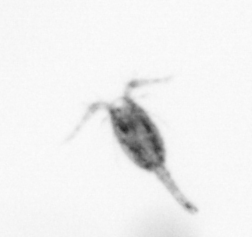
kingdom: Animalia
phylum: Arthropoda
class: Copepoda
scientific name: Copepoda
